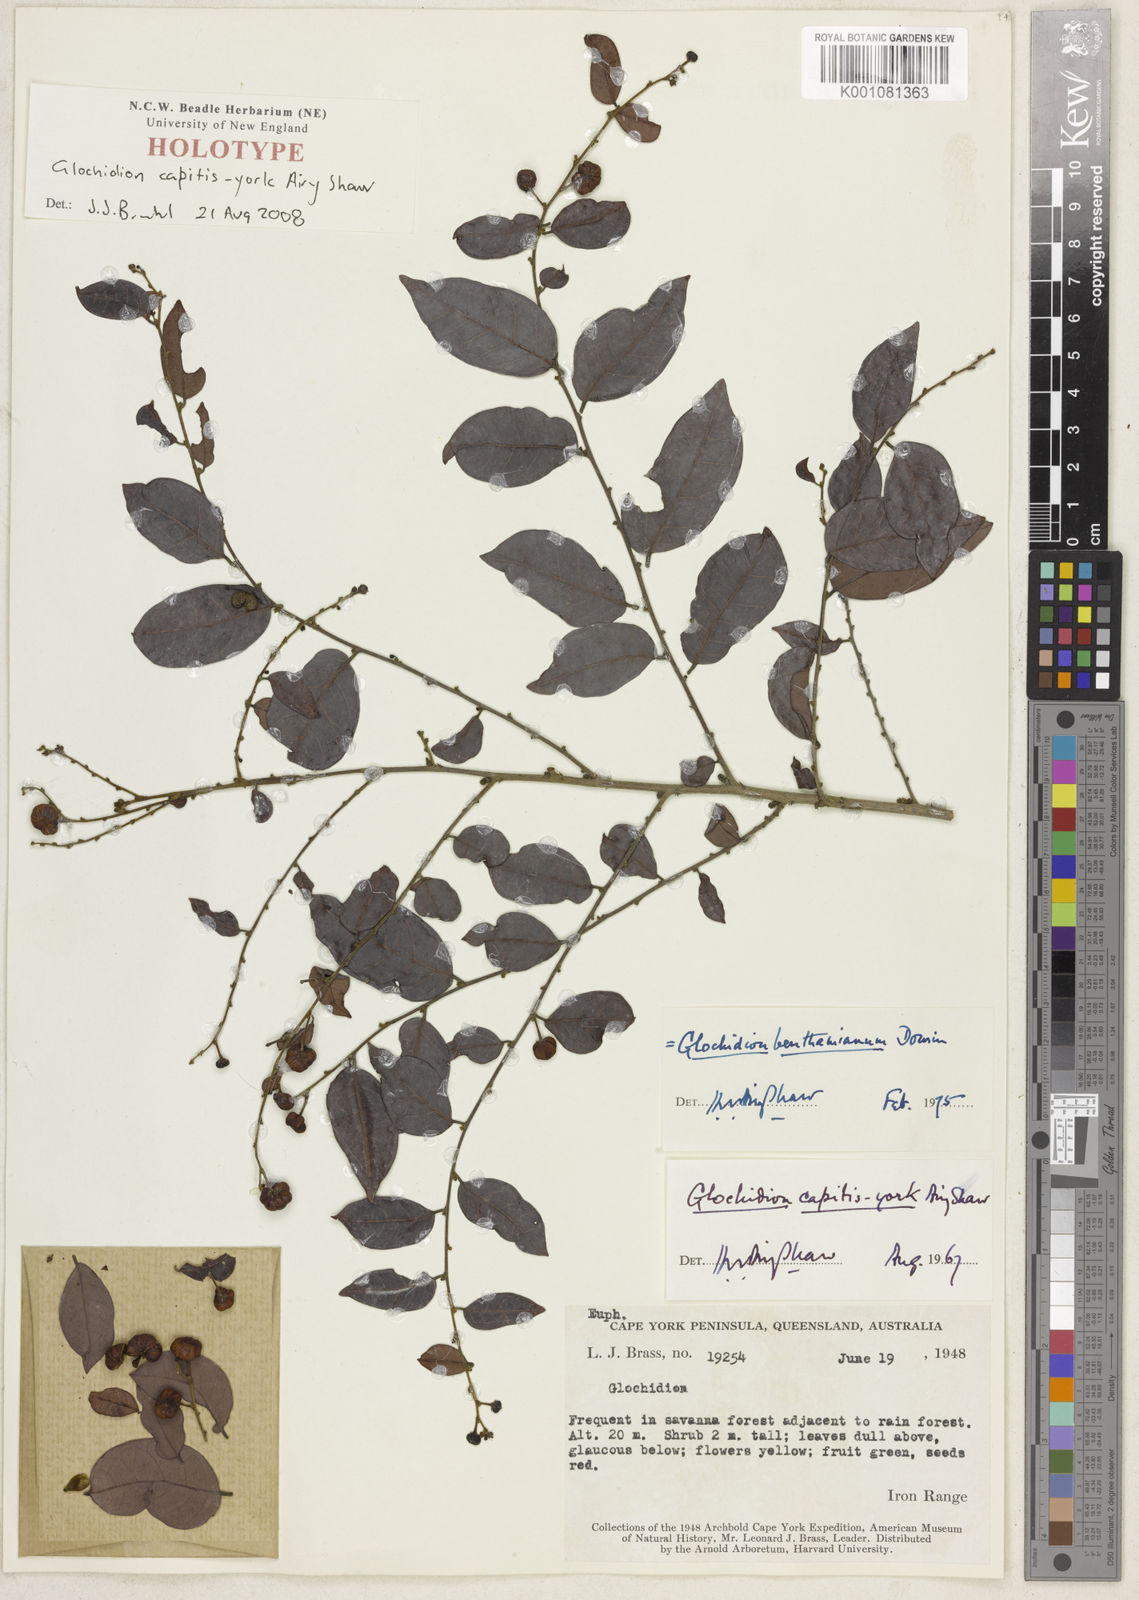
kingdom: Plantae
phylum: Tracheophyta
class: Magnoliopsida
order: Malpighiales
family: Phyllanthaceae
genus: Glochidion
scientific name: Glochidion benthamianum
